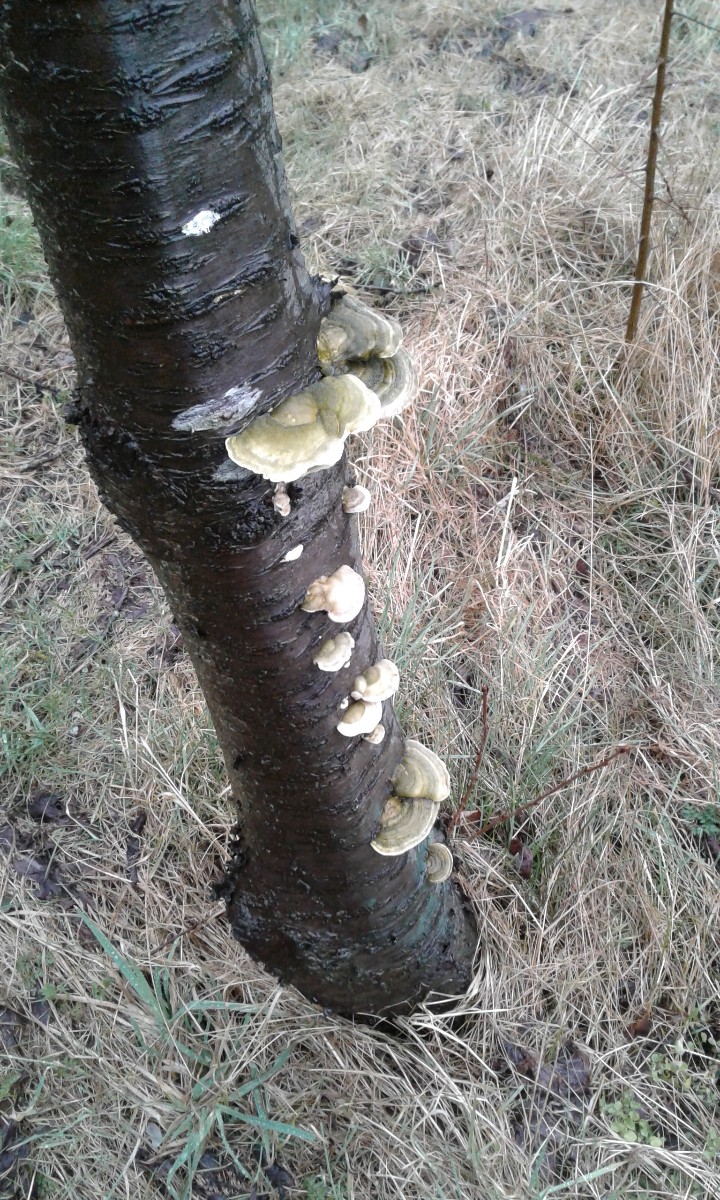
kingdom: Fungi
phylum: Basidiomycota
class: Agaricomycetes
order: Polyporales
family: Polyporaceae
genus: Trametes
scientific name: Trametes hirsuta
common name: håret læderporesvamp
